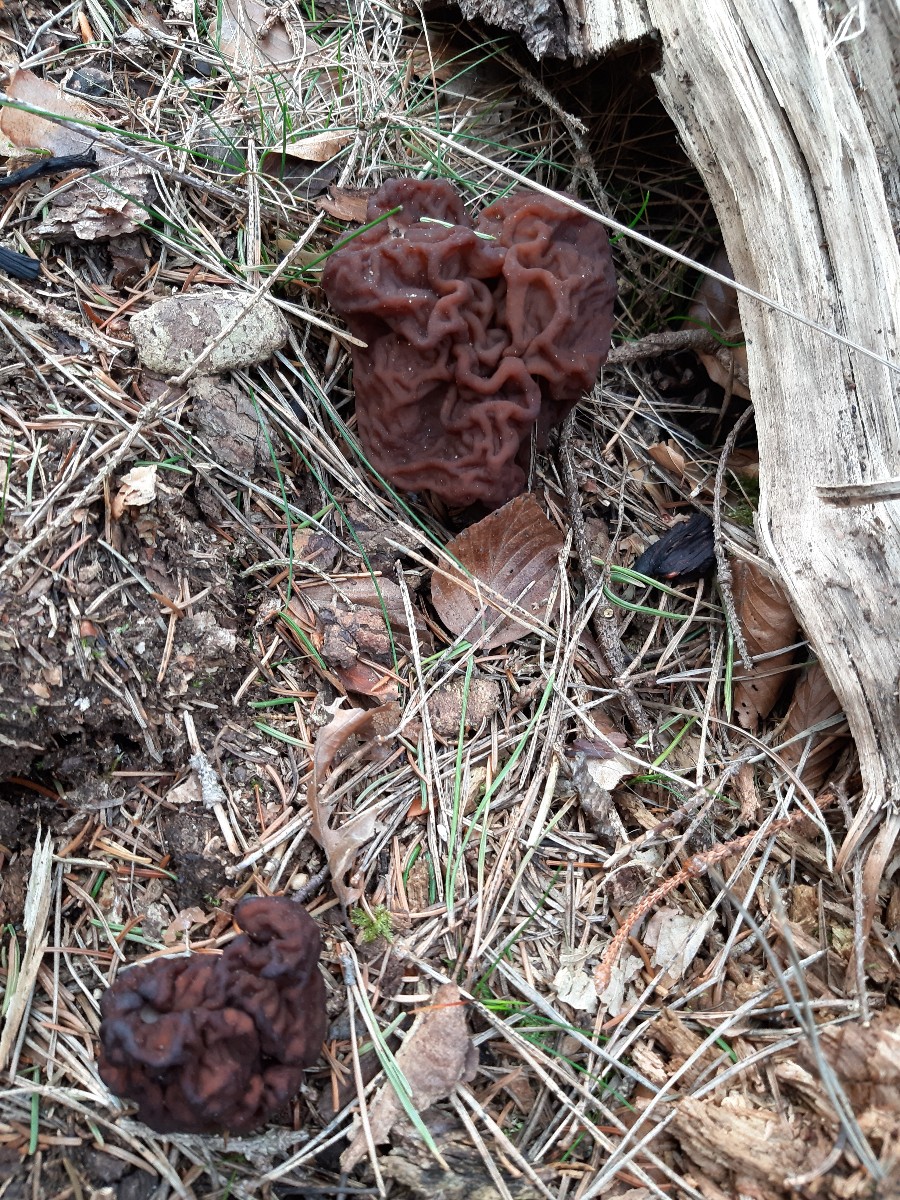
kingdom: Fungi
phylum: Ascomycota
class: Pezizomycetes
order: Pezizales
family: Discinaceae
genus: Gyromitra
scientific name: Gyromitra esculenta
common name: ægte stenmorkel
